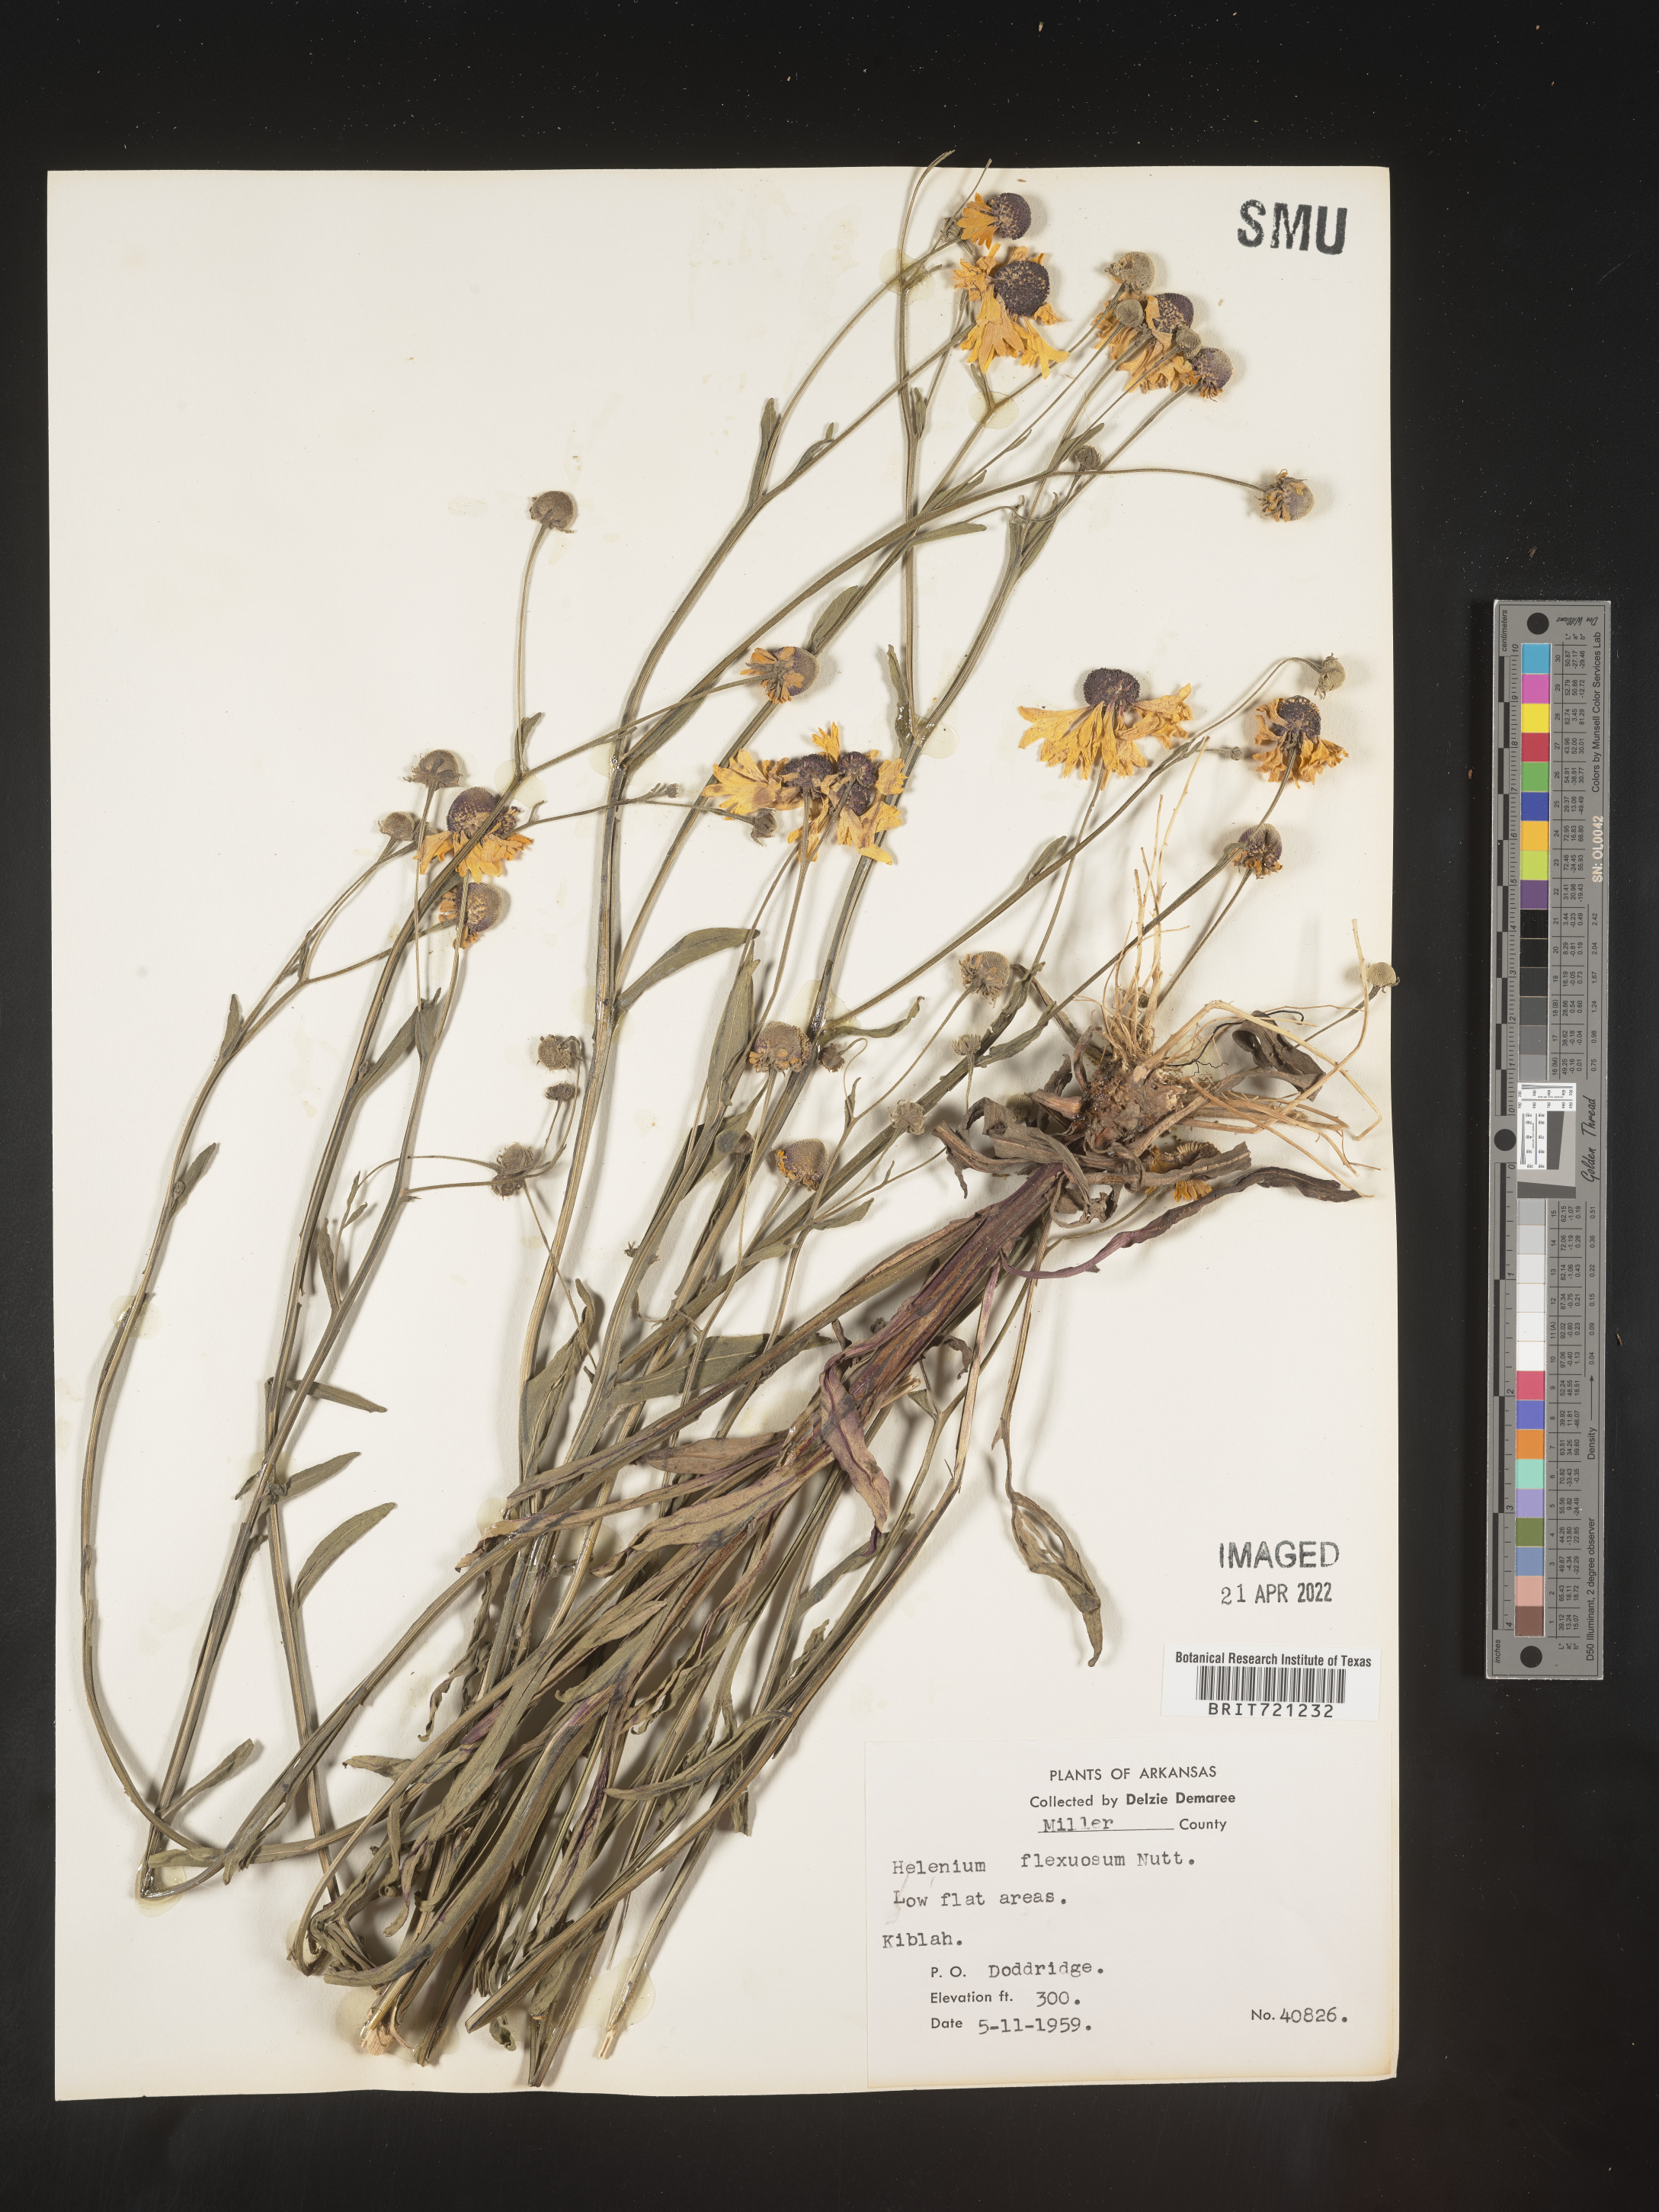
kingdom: Plantae
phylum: Tracheophyta
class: Magnoliopsida
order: Asterales
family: Asteraceae
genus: Helenium
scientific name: Helenium flexuosum
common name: Naked-flowered sneezeweed
